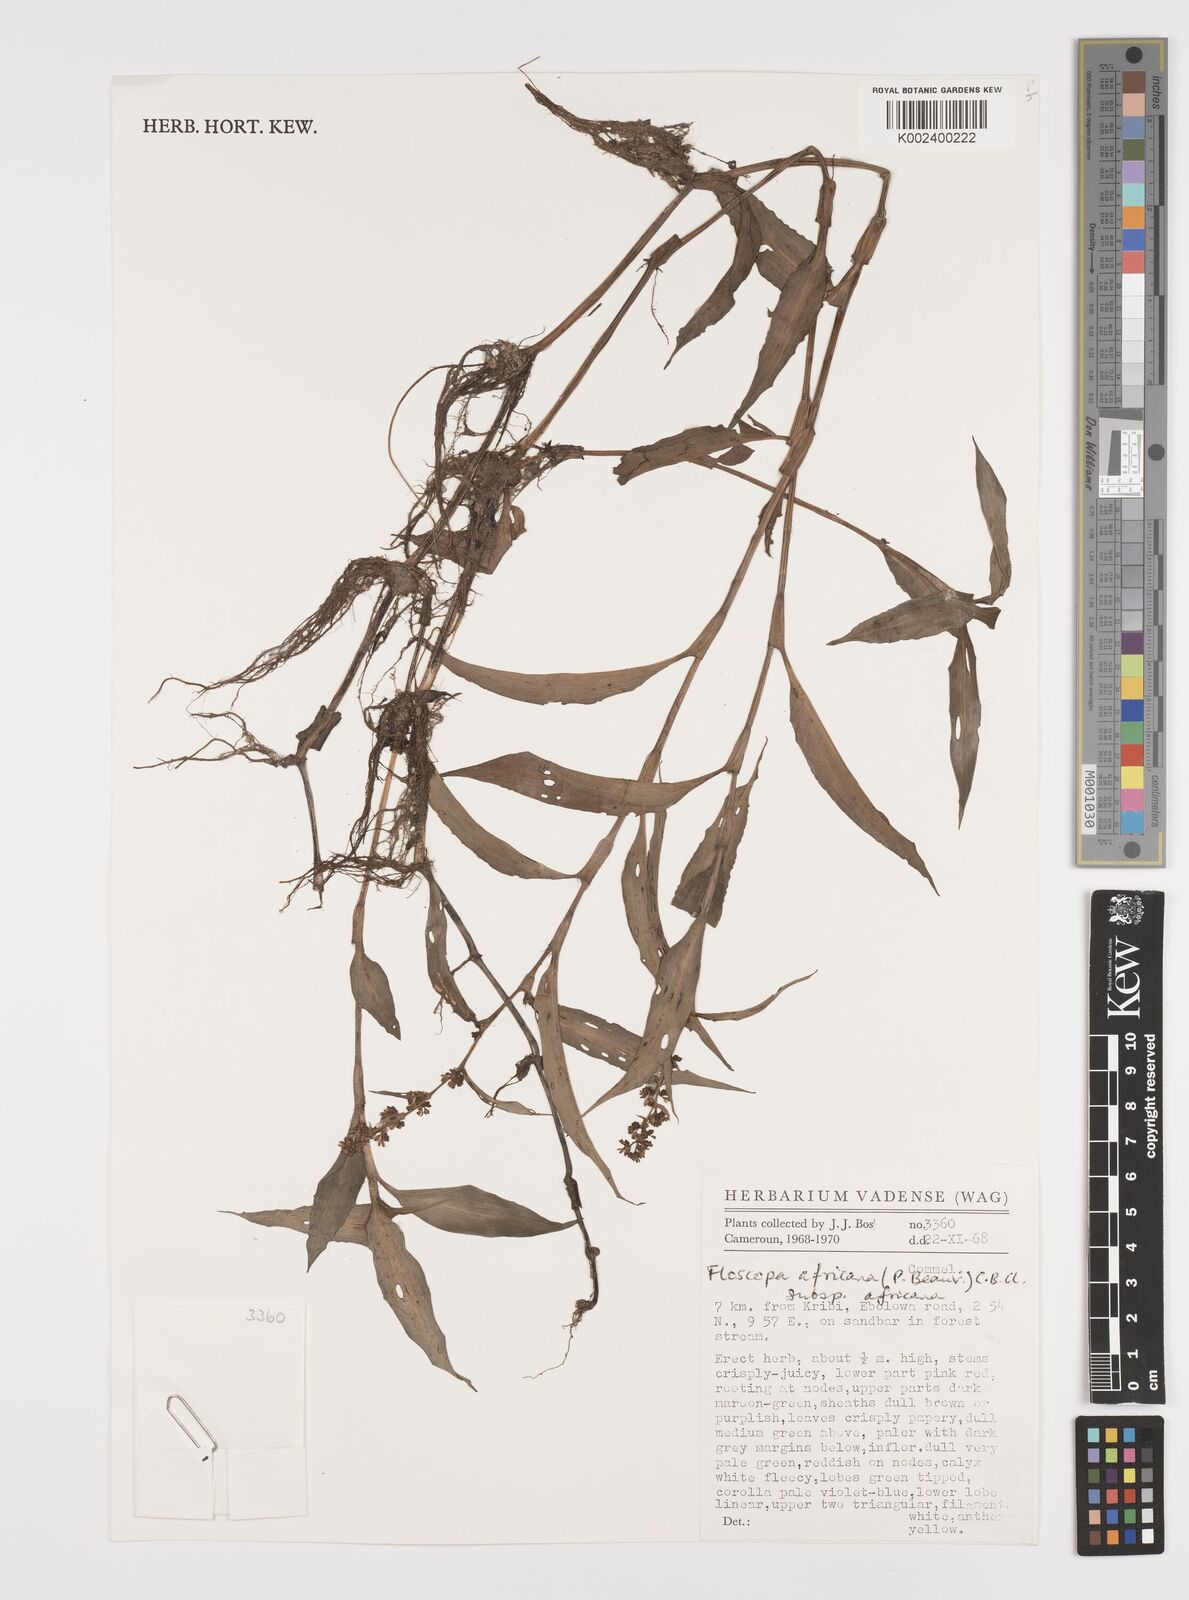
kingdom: Plantae
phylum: Tracheophyta
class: Liliopsida
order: Commelinales
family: Commelinaceae
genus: Floscopa
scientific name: Floscopa africana
